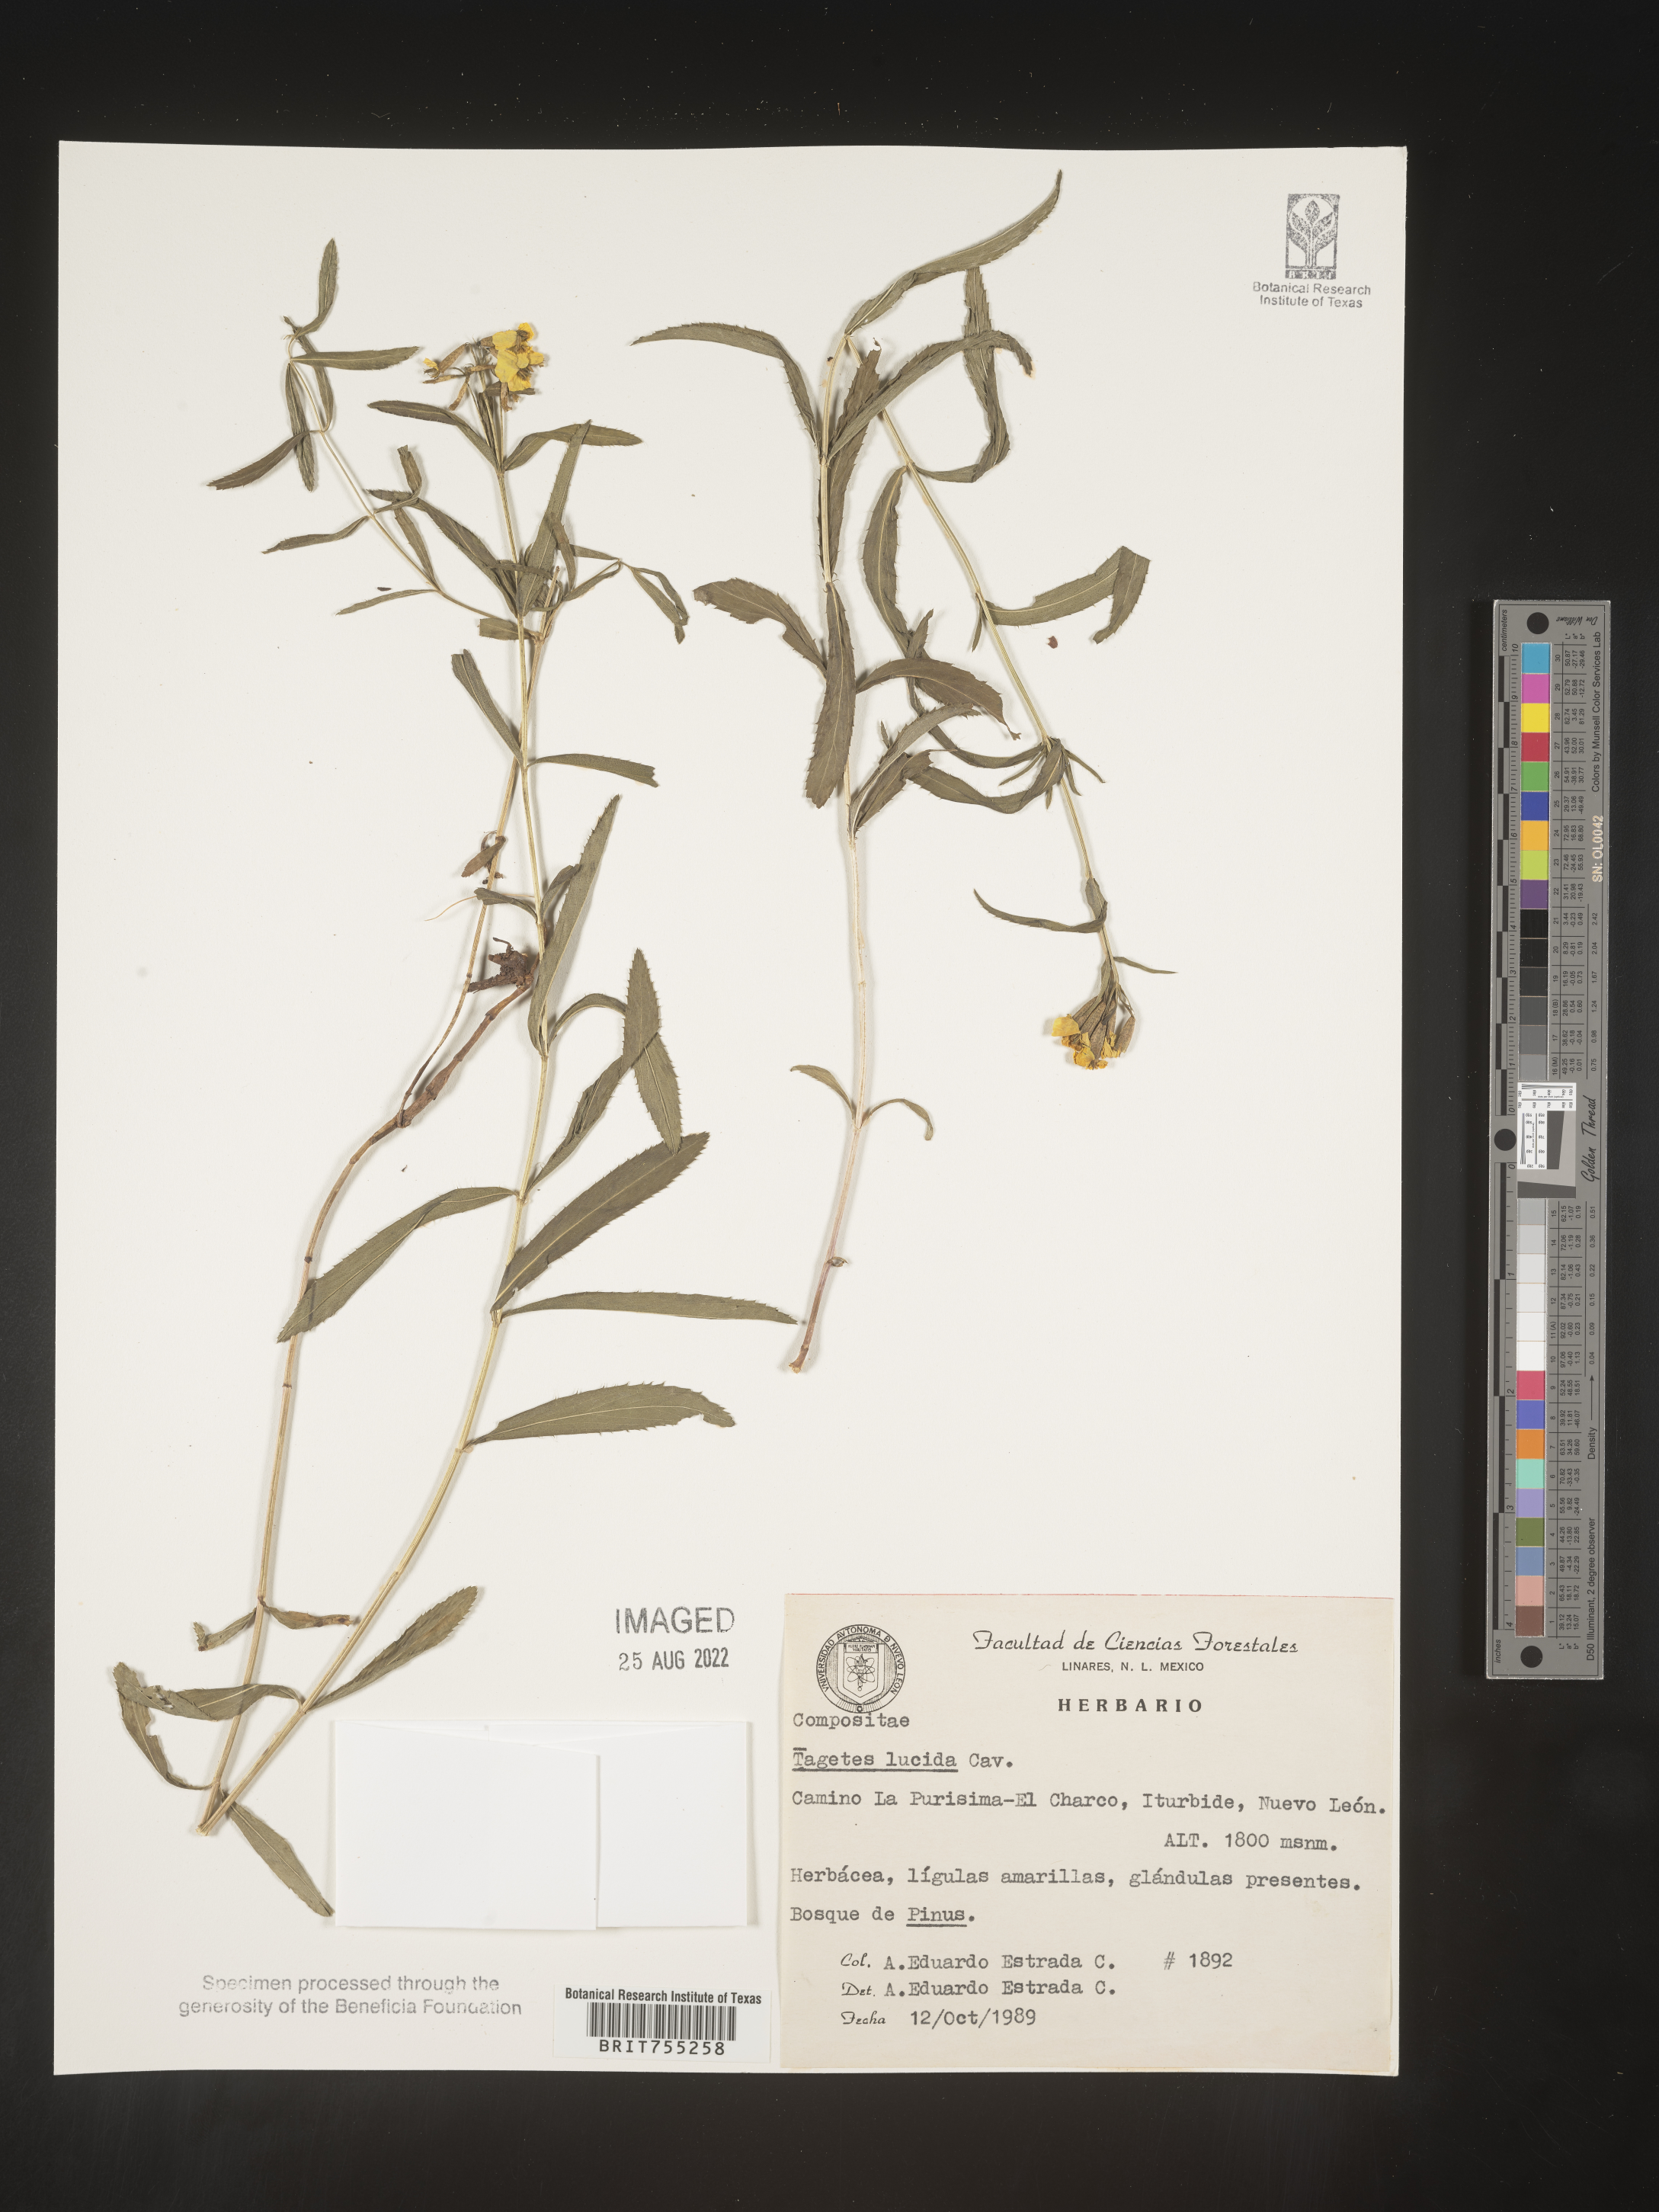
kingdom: Plantae
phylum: Tracheophyta
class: Magnoliopsida
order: Asterales
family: Asteraceae
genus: Tagetes
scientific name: Tagetes lucida
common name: Sweetscented marigold
